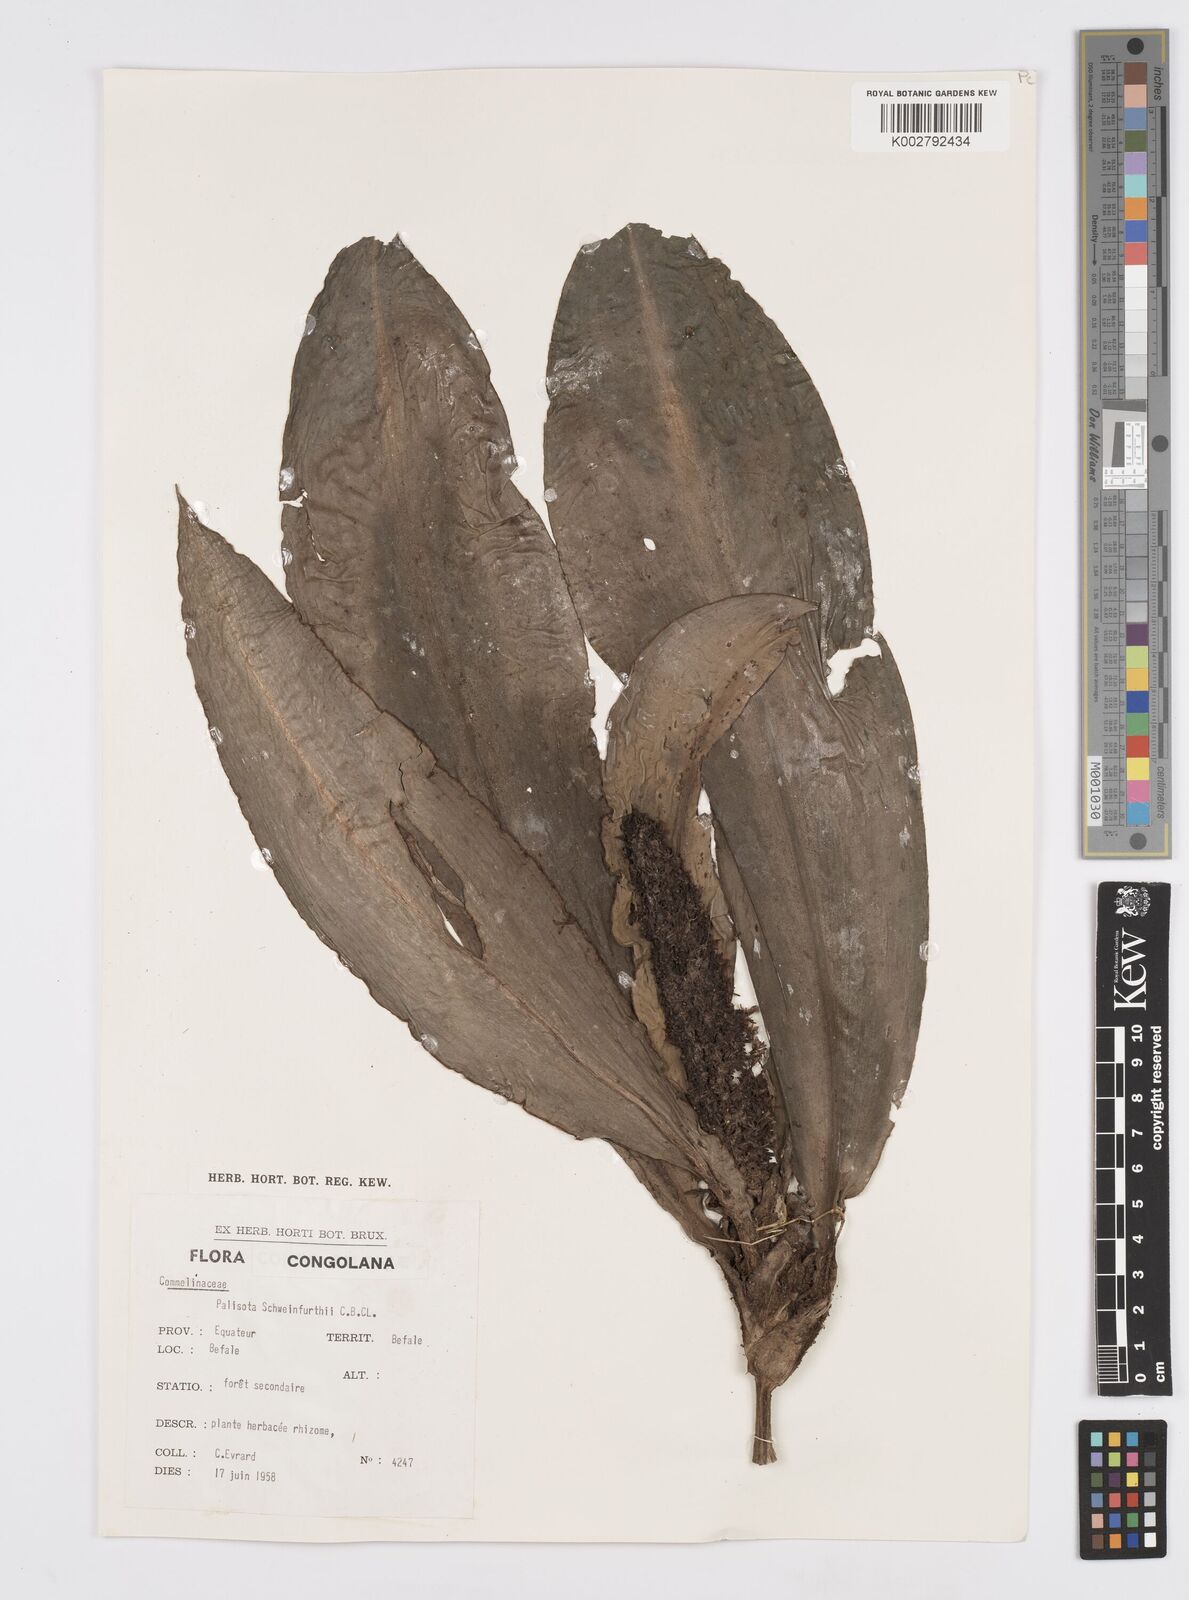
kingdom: Plantae
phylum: Tracheophyta
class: Liliopsida
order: Commelinales
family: Commelinaceae
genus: Palisota
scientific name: Palisota schweinfurthii
